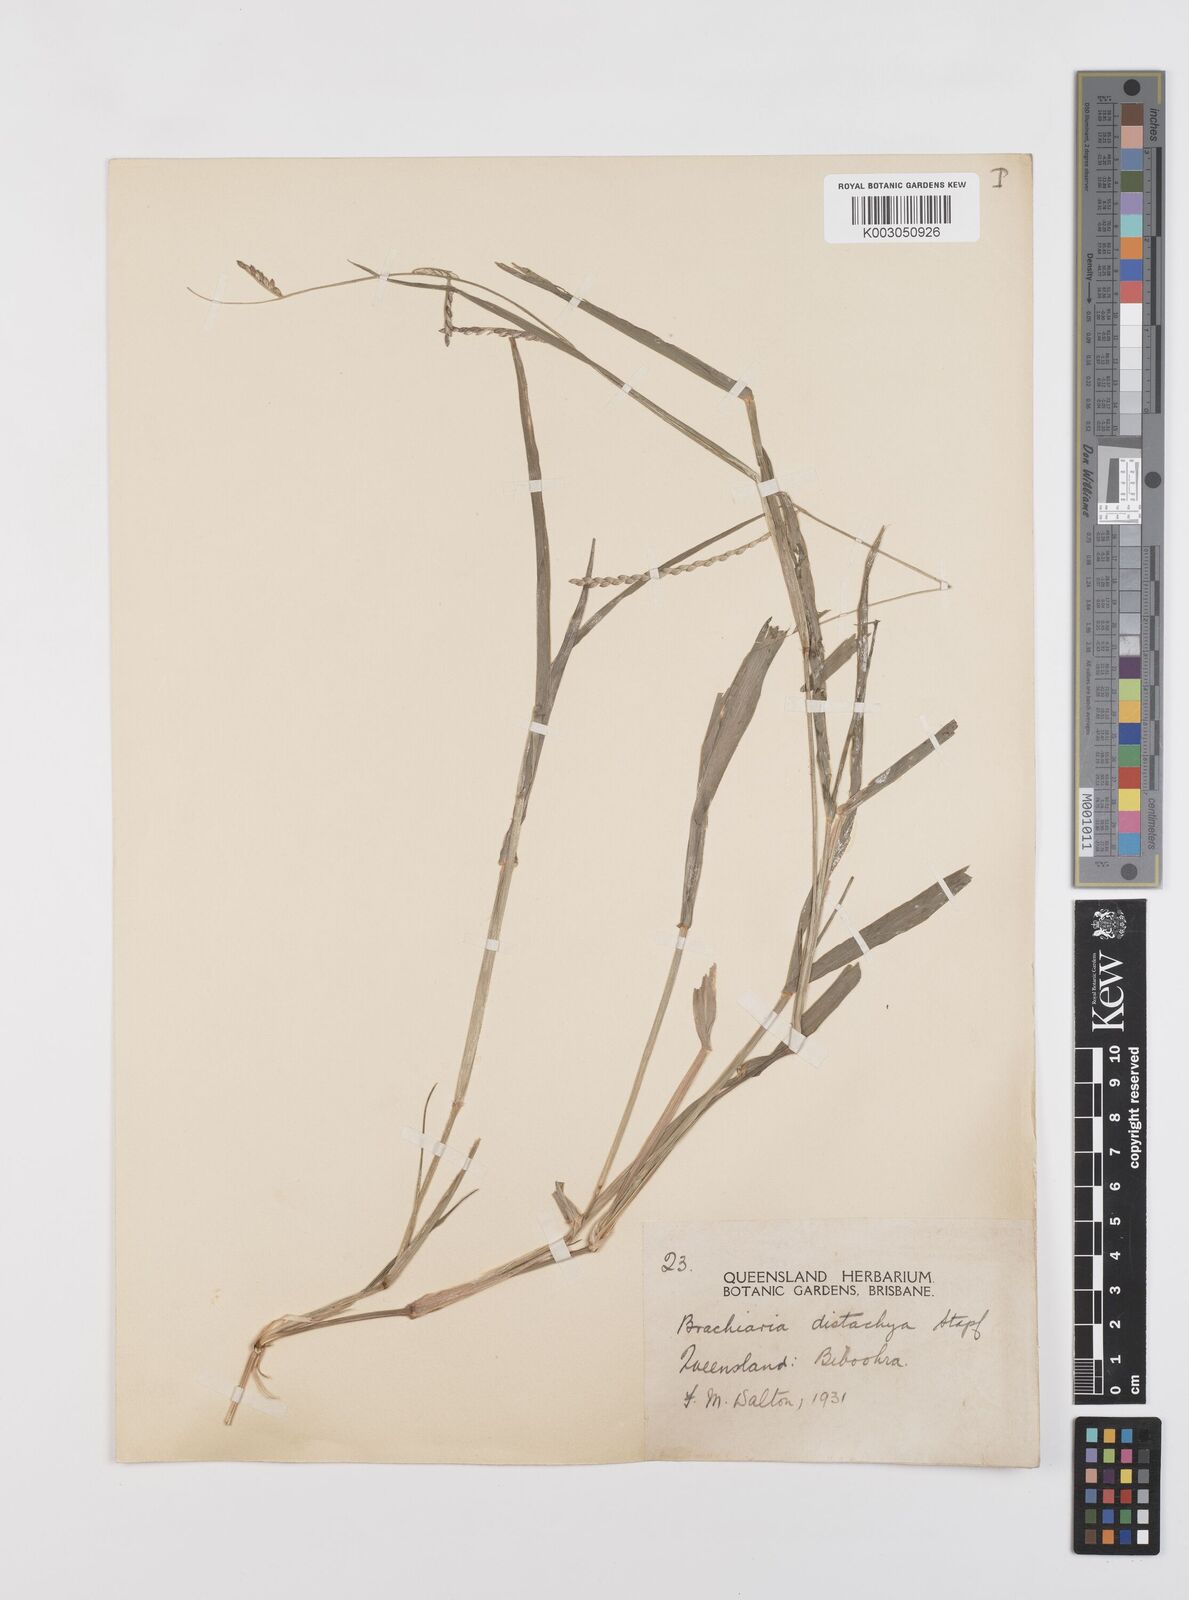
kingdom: Plantae
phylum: Tracheophyta
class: Liliopsida
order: Poales
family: Poaceae
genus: Urochloa
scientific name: Urochloa subquadripara
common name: Armgrass millet
